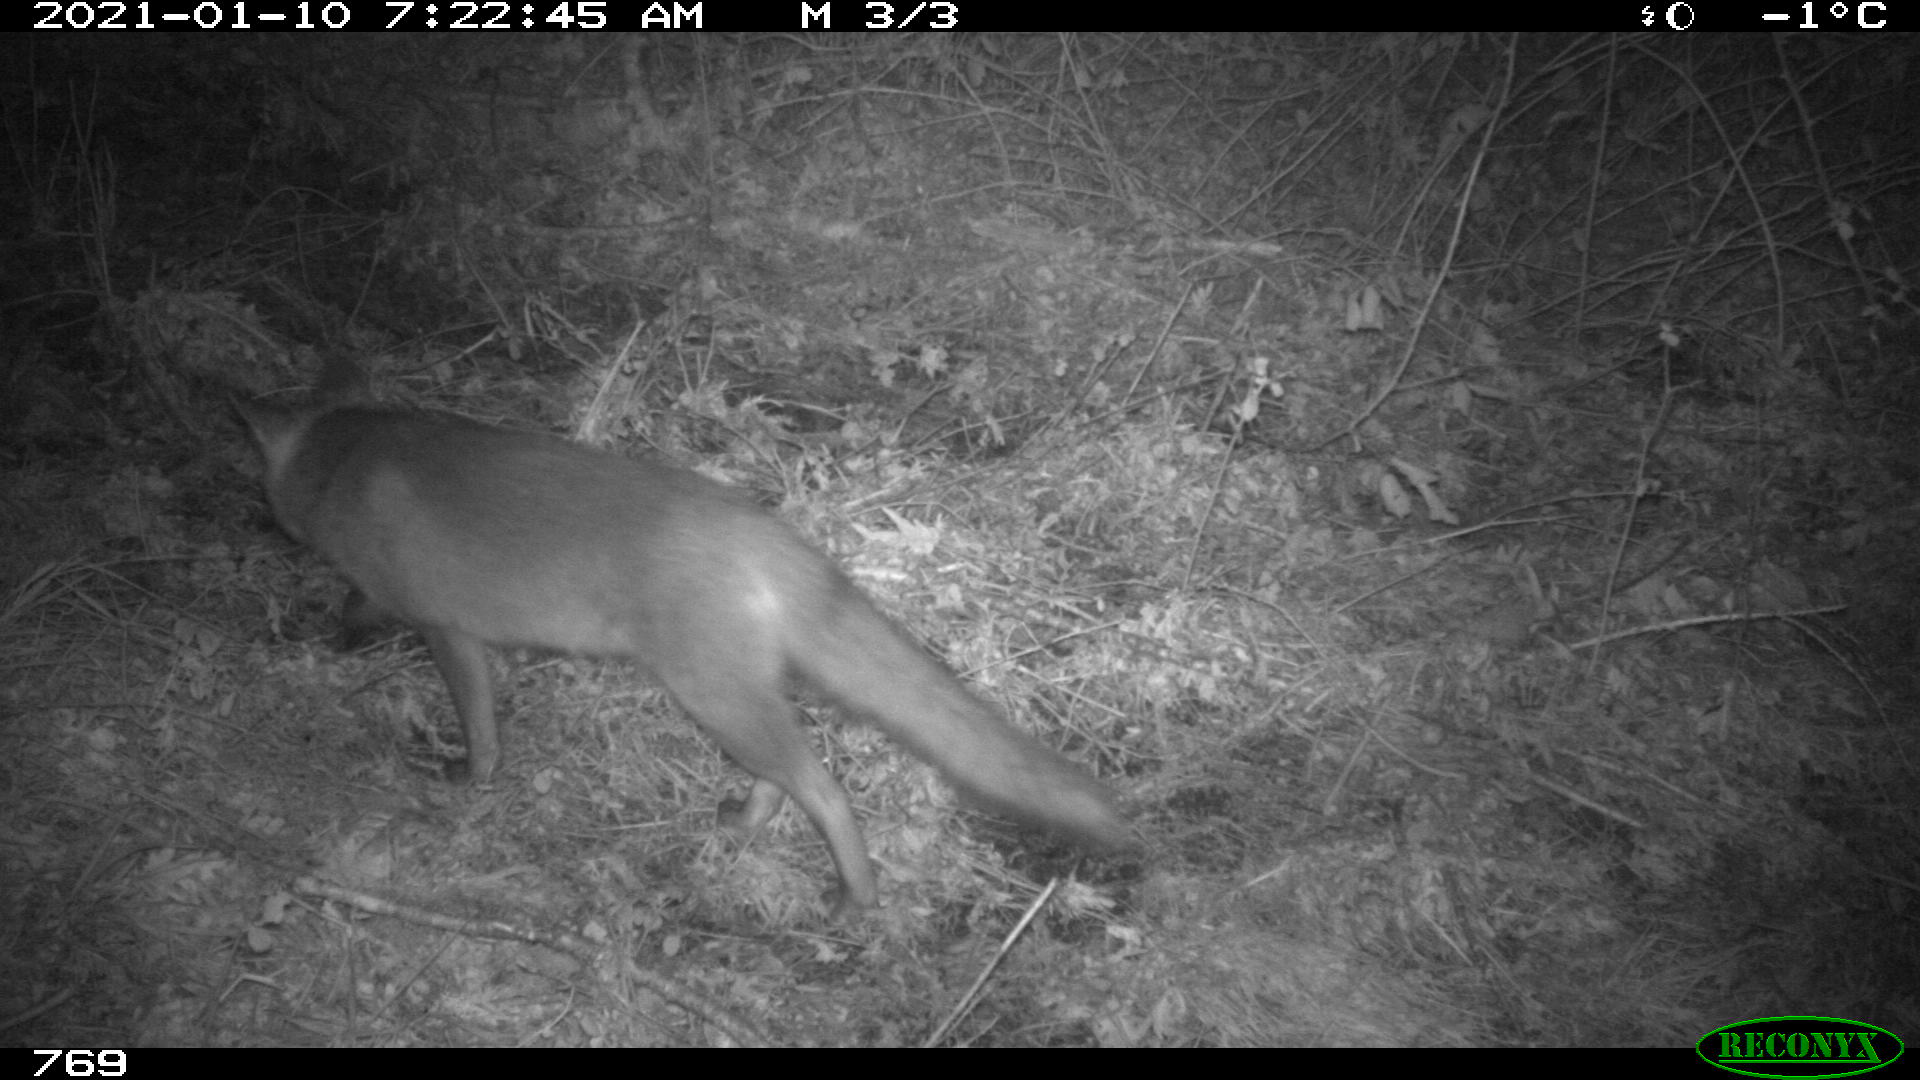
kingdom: Animalia
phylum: Chordata
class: Mammalia
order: Carnivora
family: Canidae
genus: Vulpes
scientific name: Vulpes vulpes
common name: Red fox
